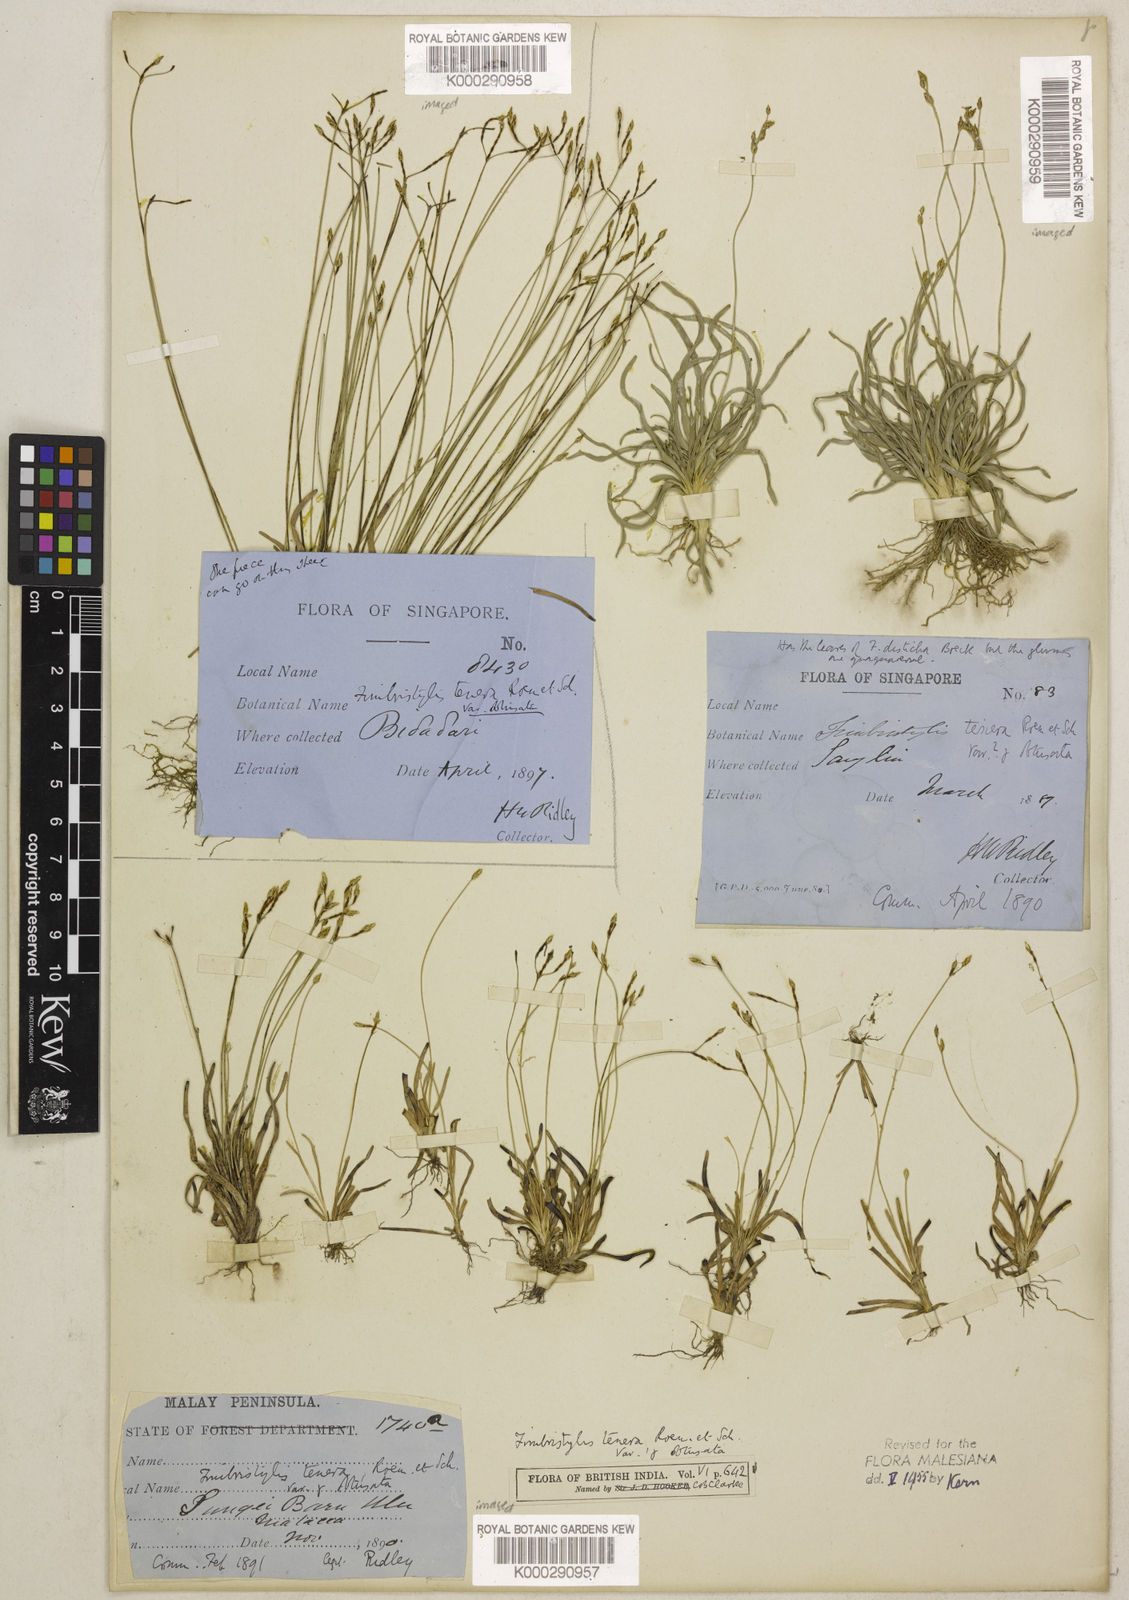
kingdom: Plantae
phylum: Tracheophyta
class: Liliopsida
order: Poales
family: Cyperaceae
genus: Fimbristylis
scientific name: Fimbristylis obtusata
